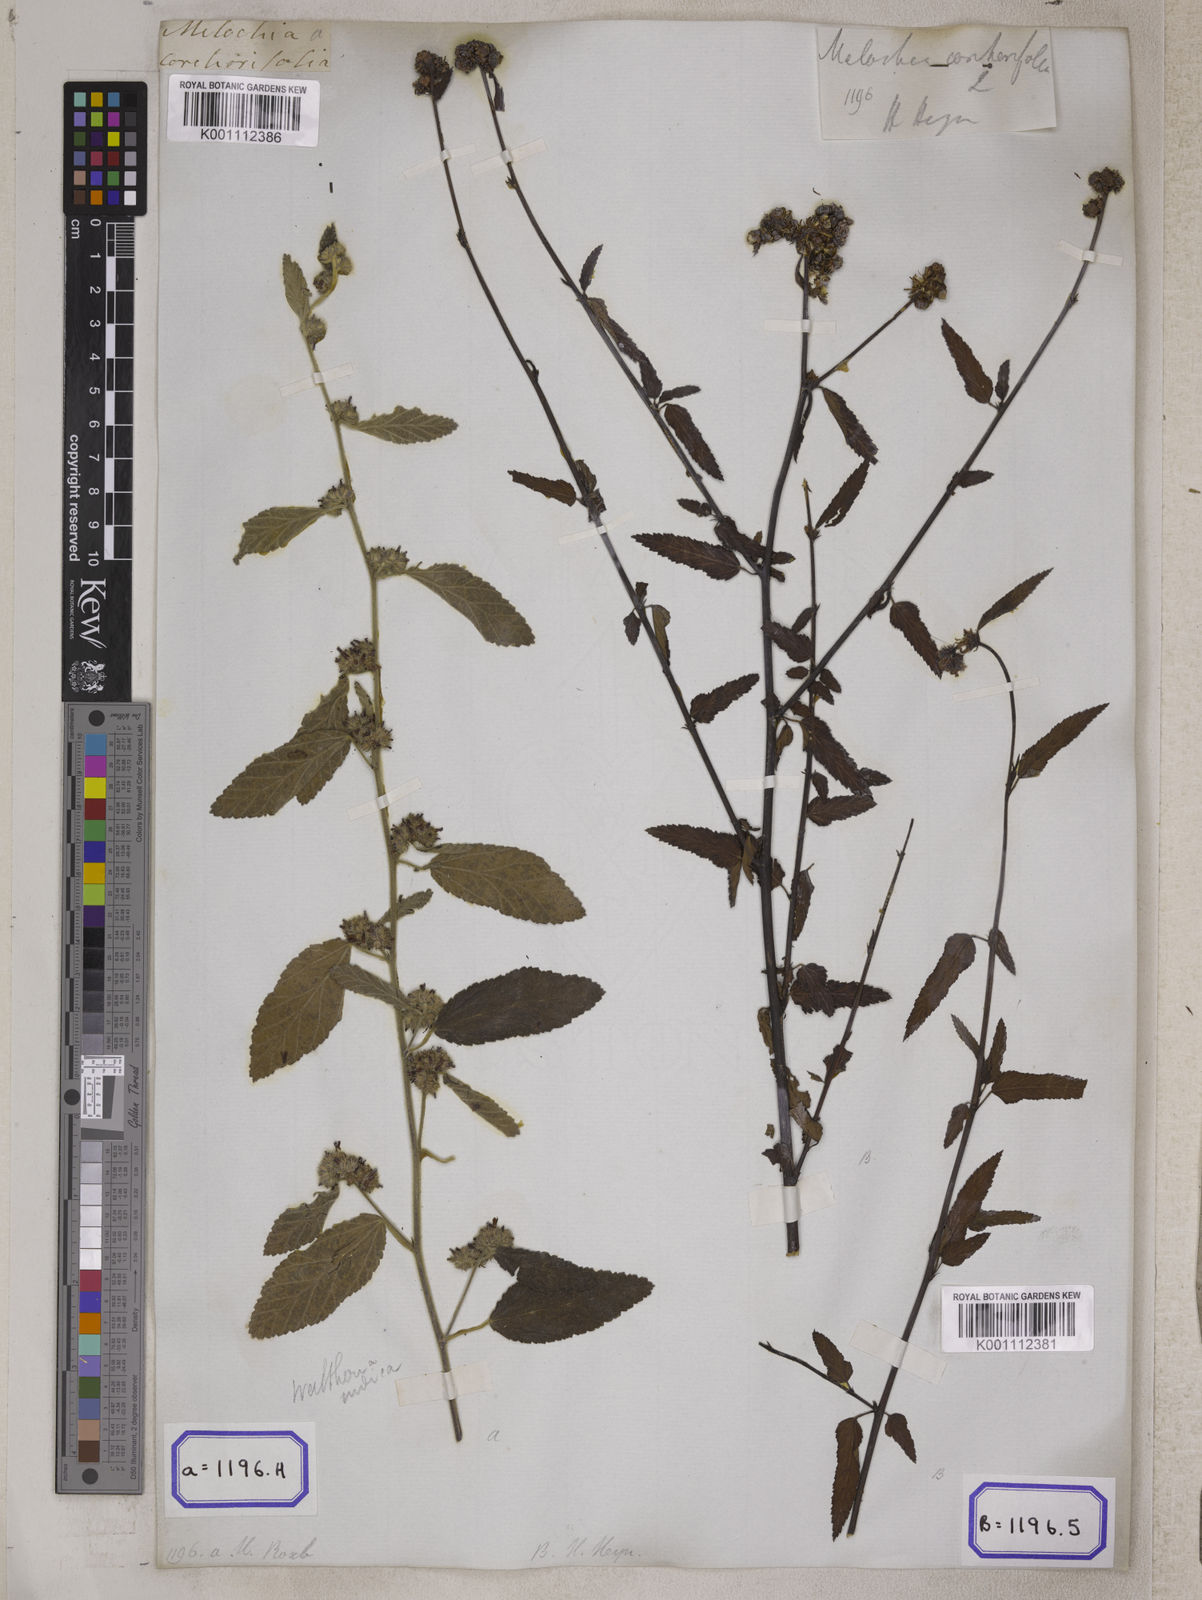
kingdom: Plantae
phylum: Tracheophyta
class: Magnoliopsida
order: Malvales
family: Malvaceae
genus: Melochia
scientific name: Melochia corchorifolia
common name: Chocolateweed
